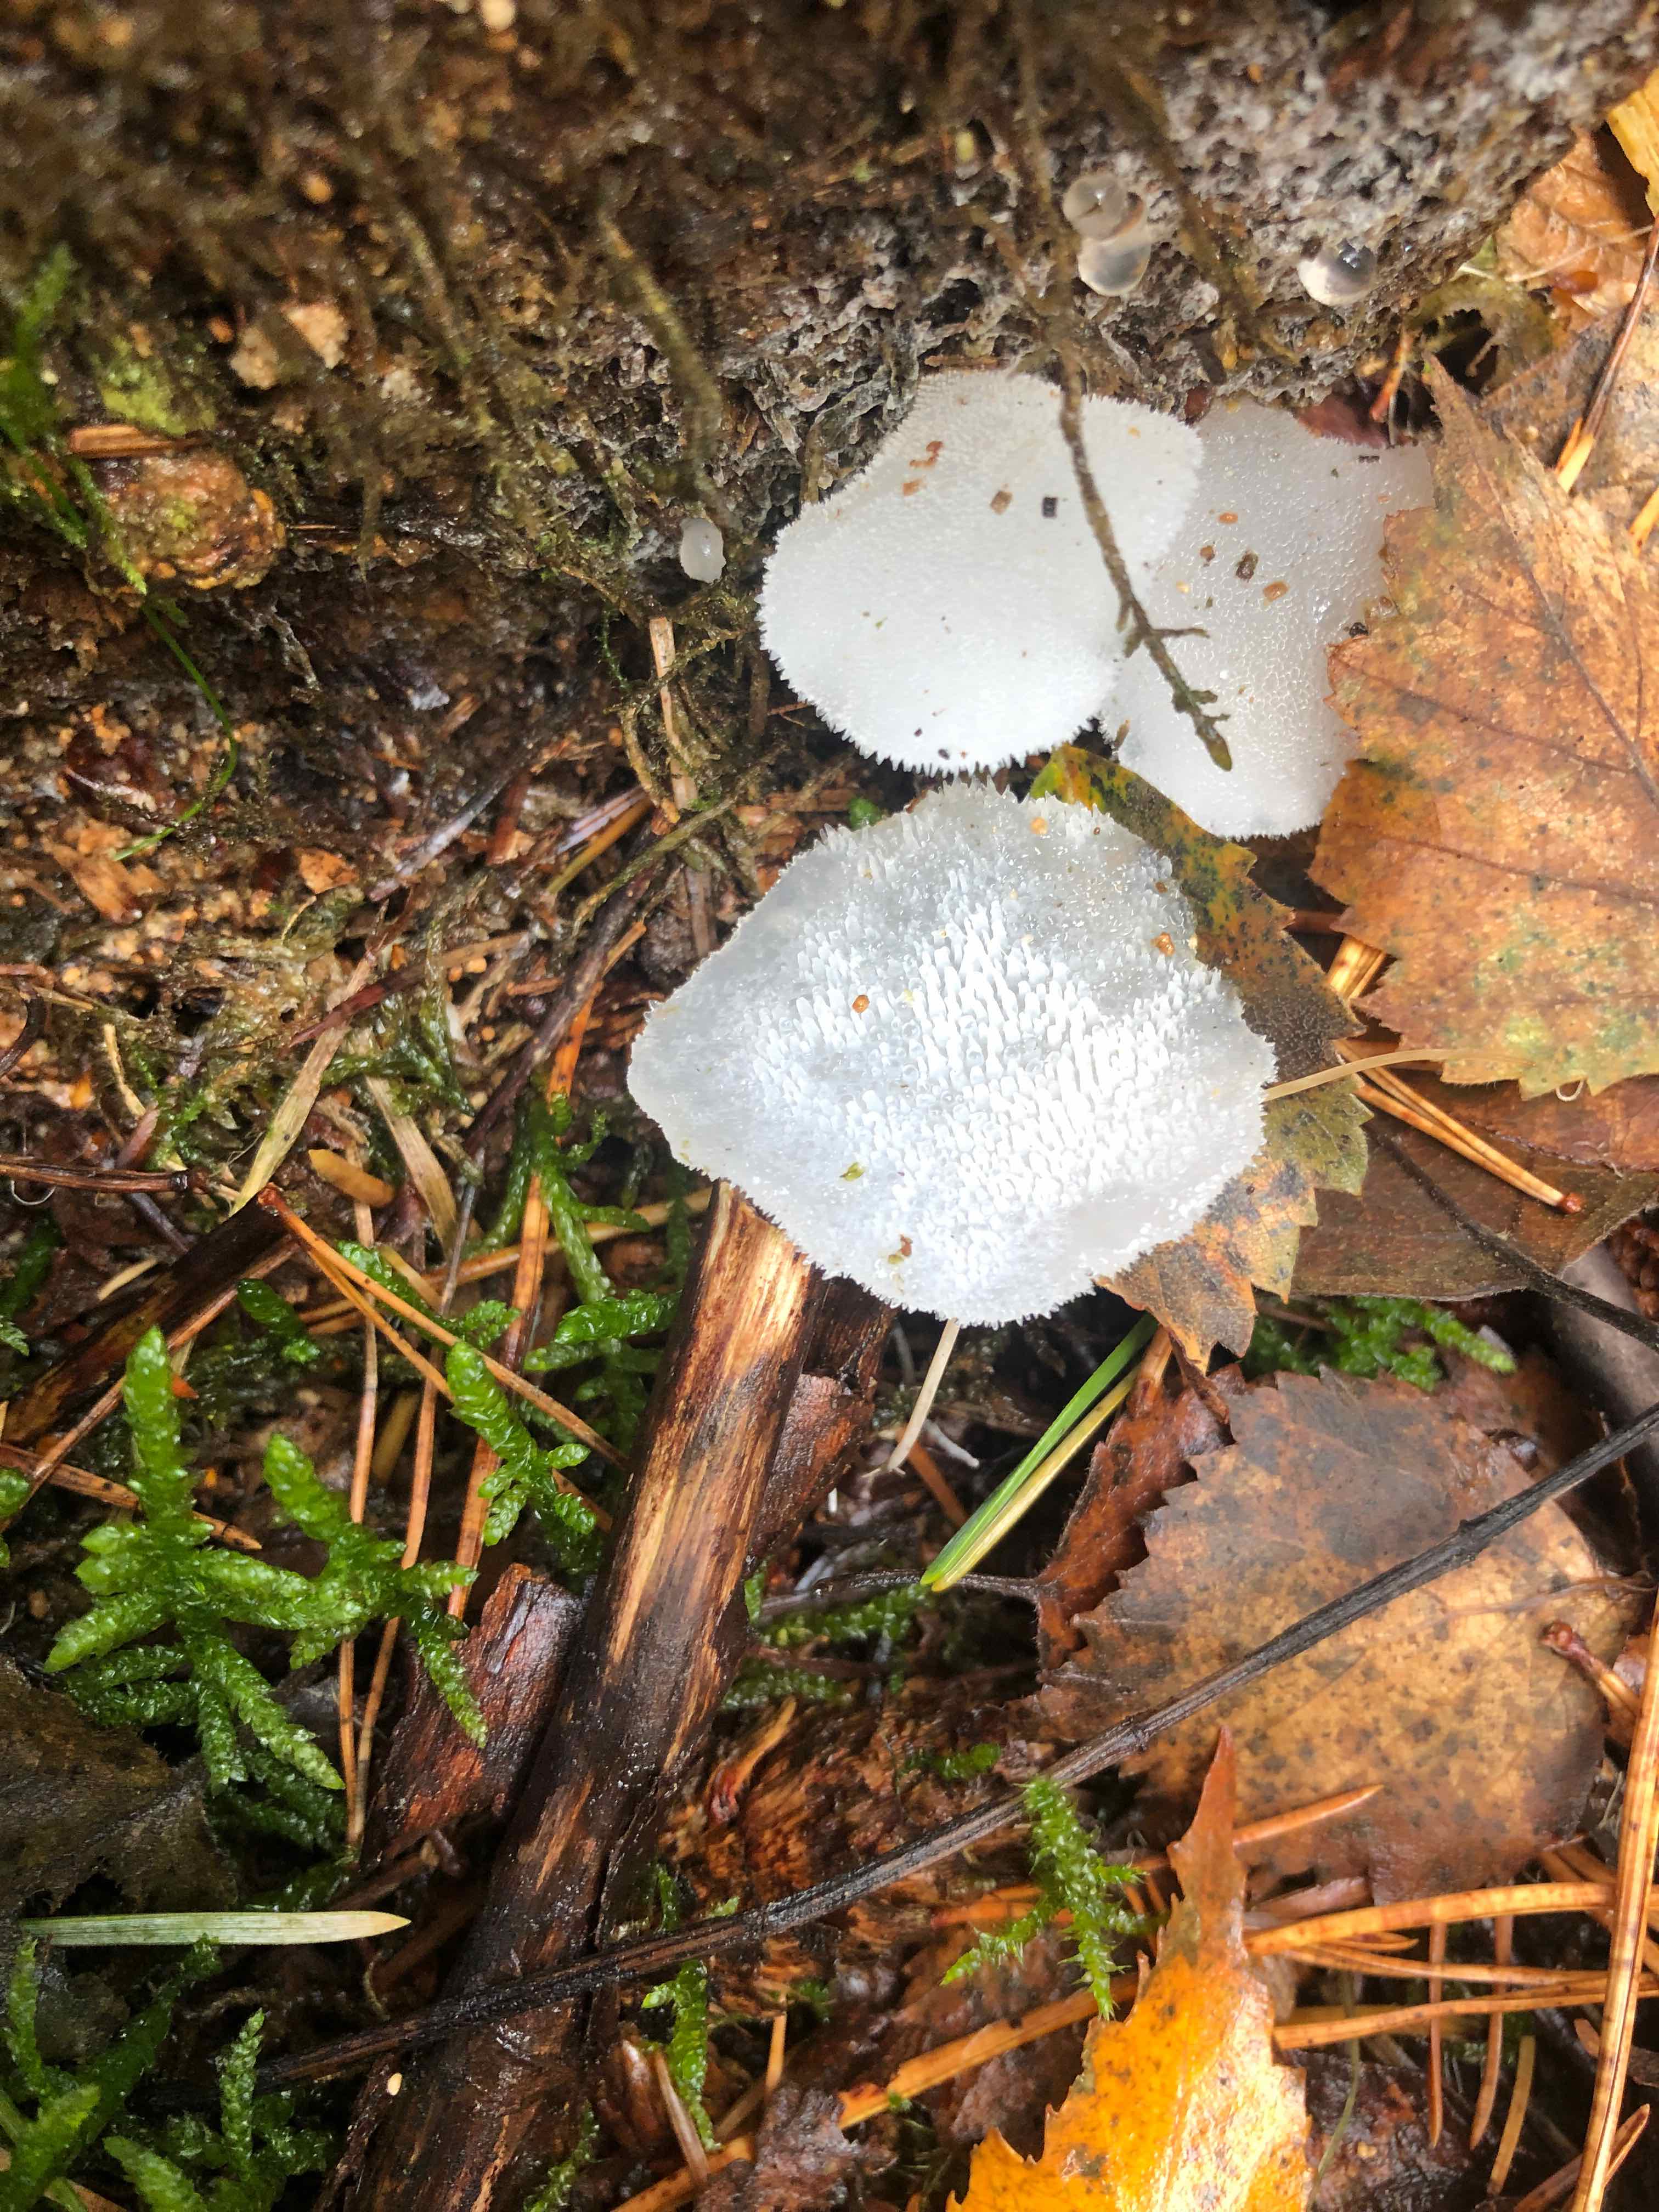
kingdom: Fungi
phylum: Basidiomycota
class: Agaricomycetes
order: Auriculariales
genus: Pseudohydnum
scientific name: Pseudohydnum gelatinosum
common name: bævretand
